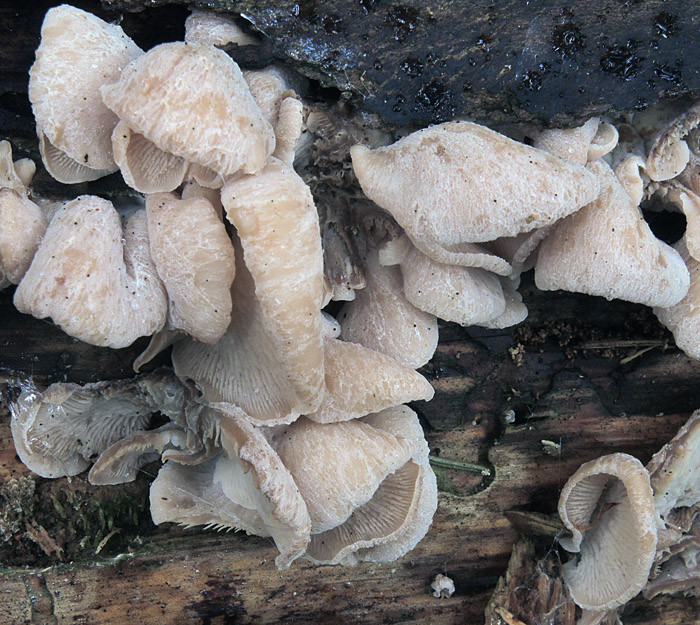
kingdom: Fungi
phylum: Basidiomycota
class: Agaricomycetes
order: Russulales
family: Auriscalpiaceae
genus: Lentinellus
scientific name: Lentinellus ursinus
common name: børstehåret savbladhat
